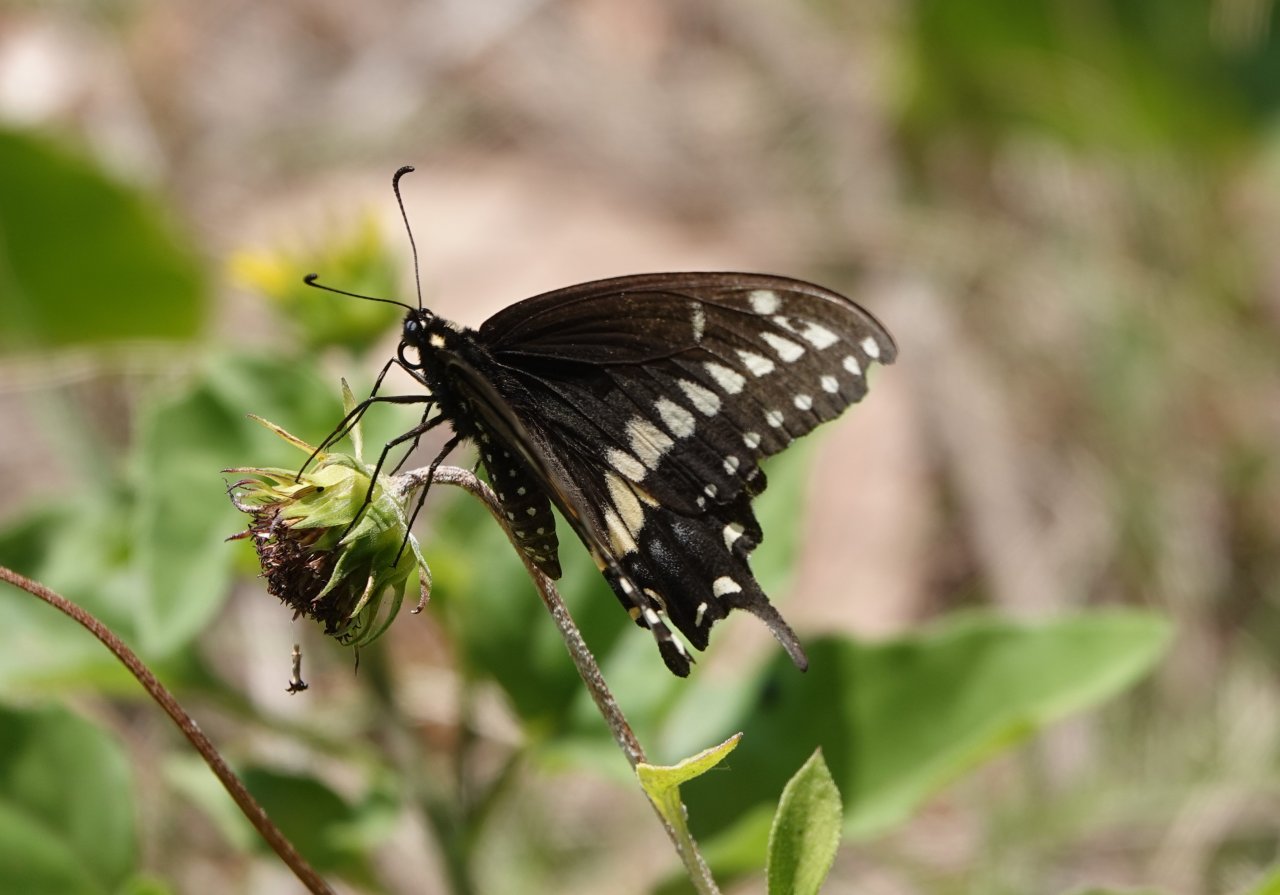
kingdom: Animalia
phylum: Arthropoda
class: Insecta
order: Lepidoptera
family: Papilionidae
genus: Papilio
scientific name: Papilio polyxenes
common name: Black Swallowtail
